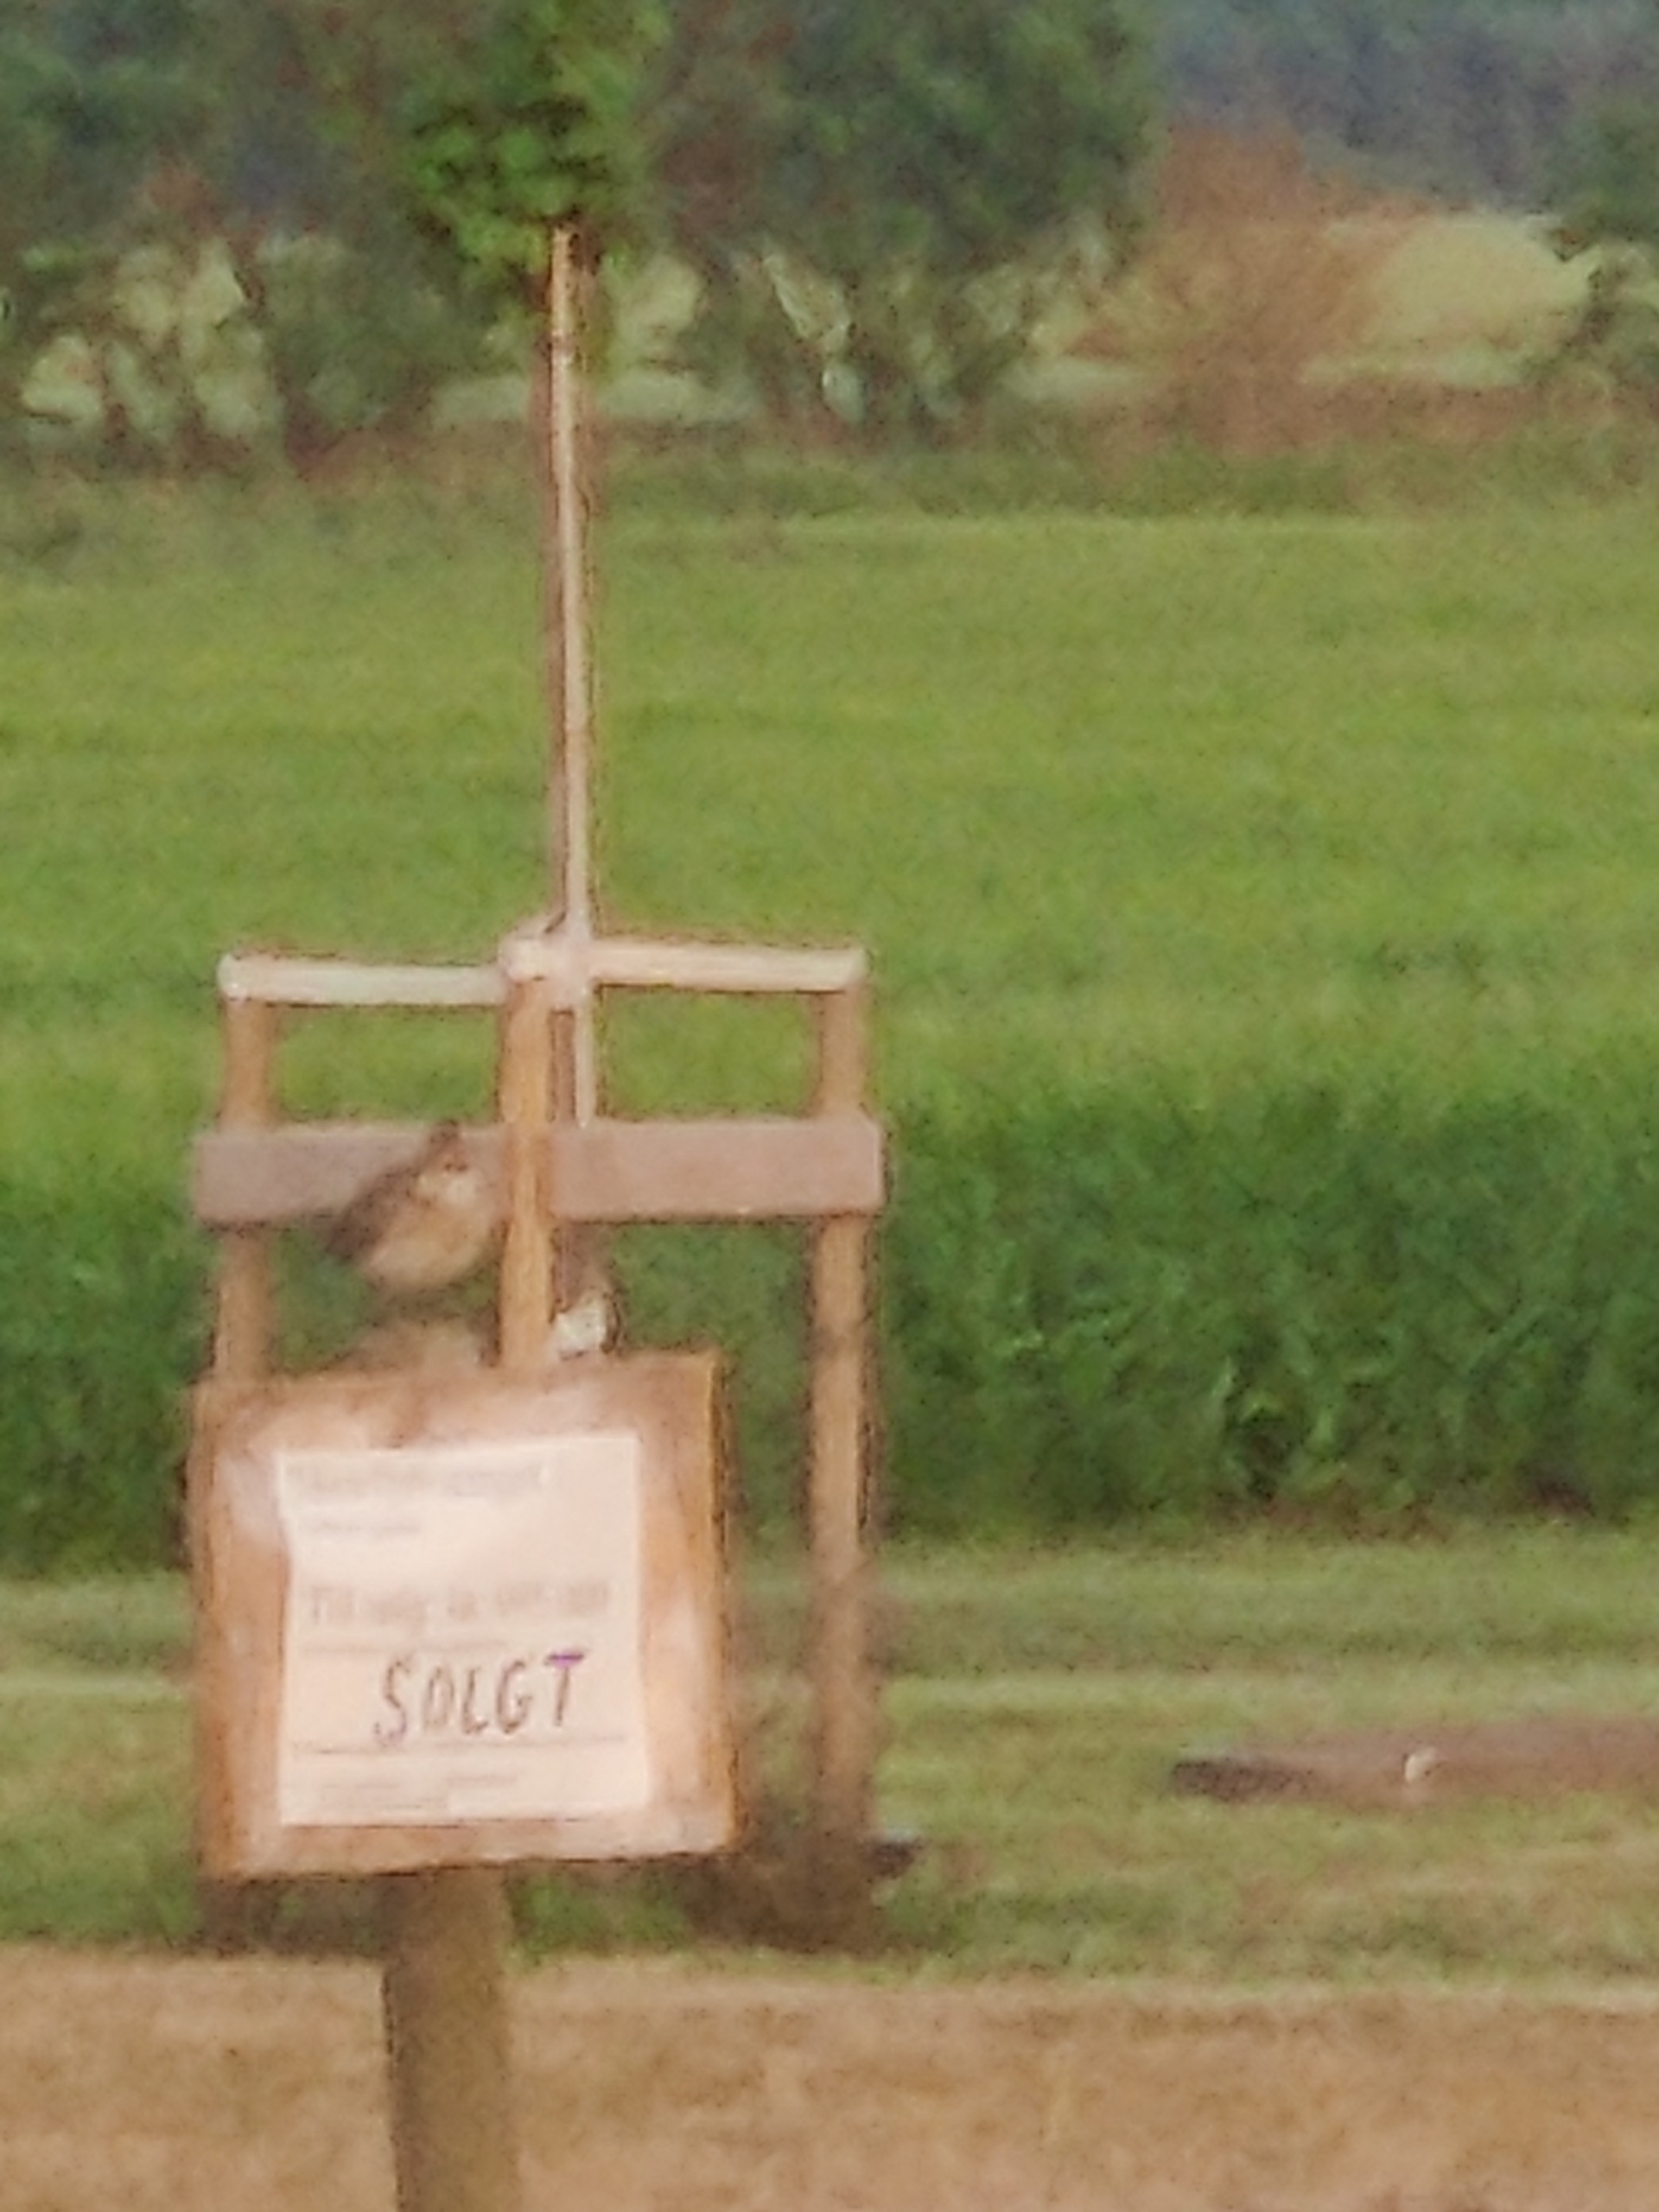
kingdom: Animalia
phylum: Chordata
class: Aves
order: Passeriformes
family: Alaudidae
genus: Alauda
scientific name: Alauda arvensis
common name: Sanglærke
